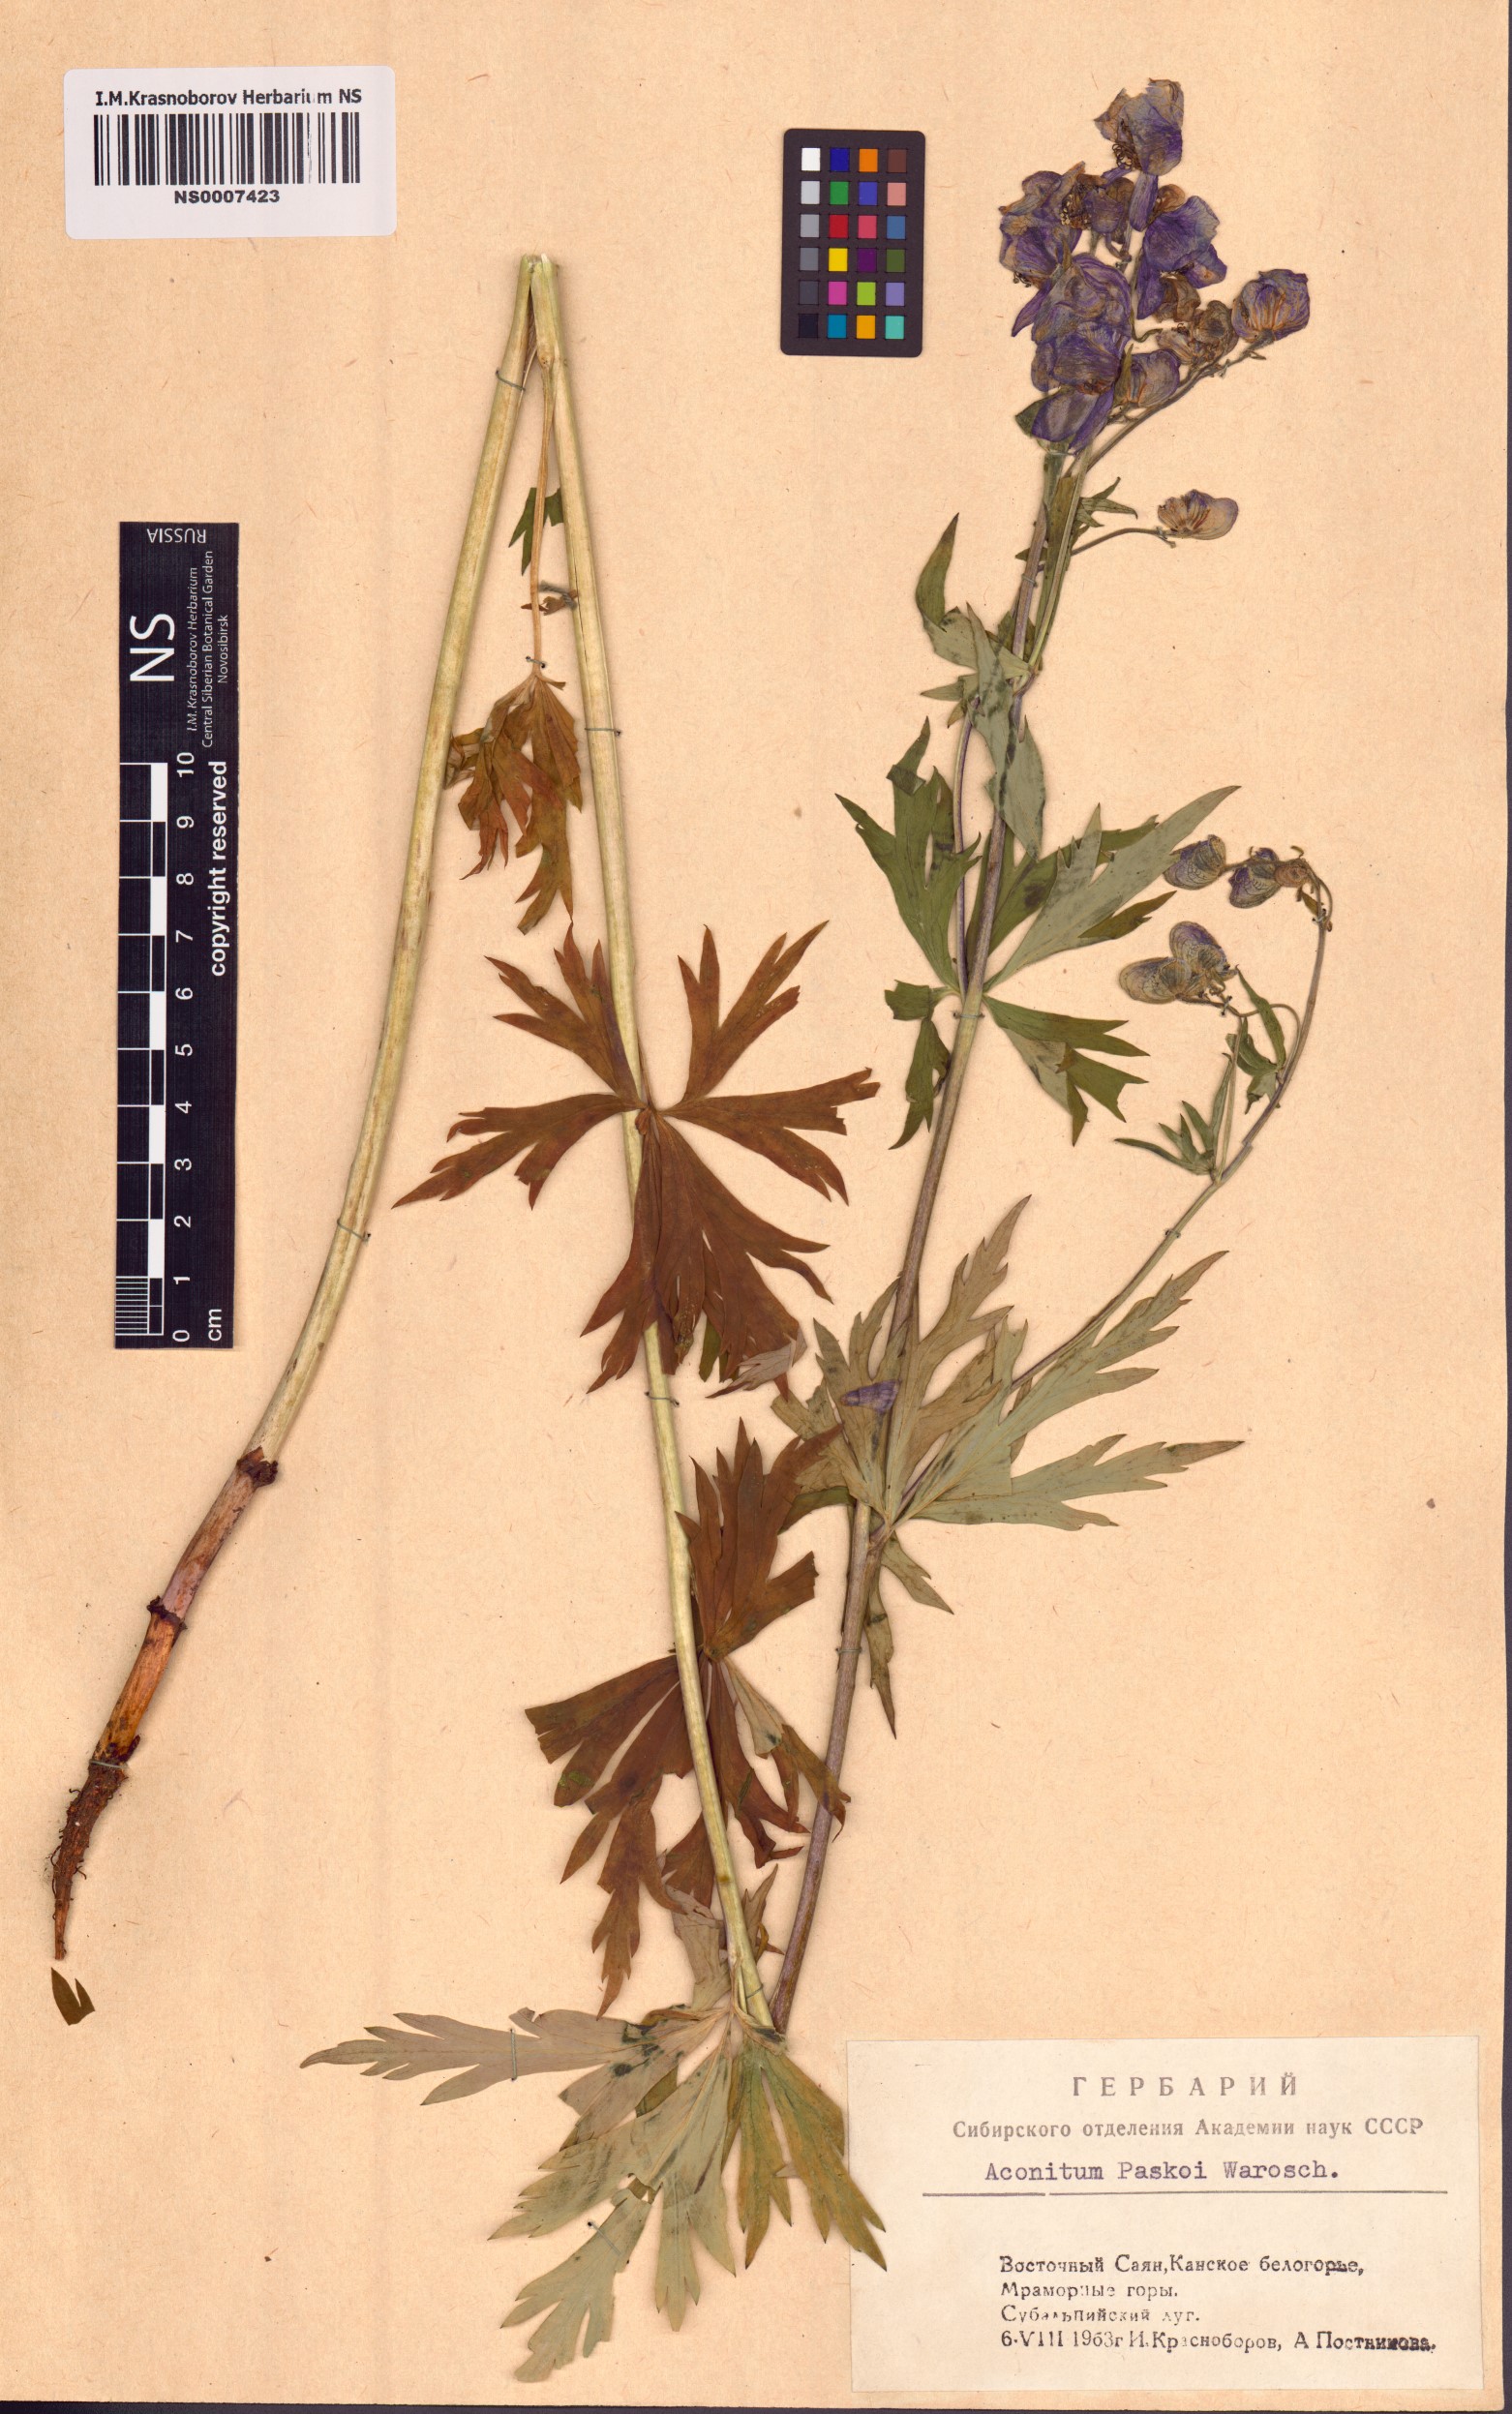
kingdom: Plantae
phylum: Tracheophyta
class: Magnoliopsida
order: Ranunculales
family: Ranunculaceae
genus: Aconitum
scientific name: Aconitum pascoi
